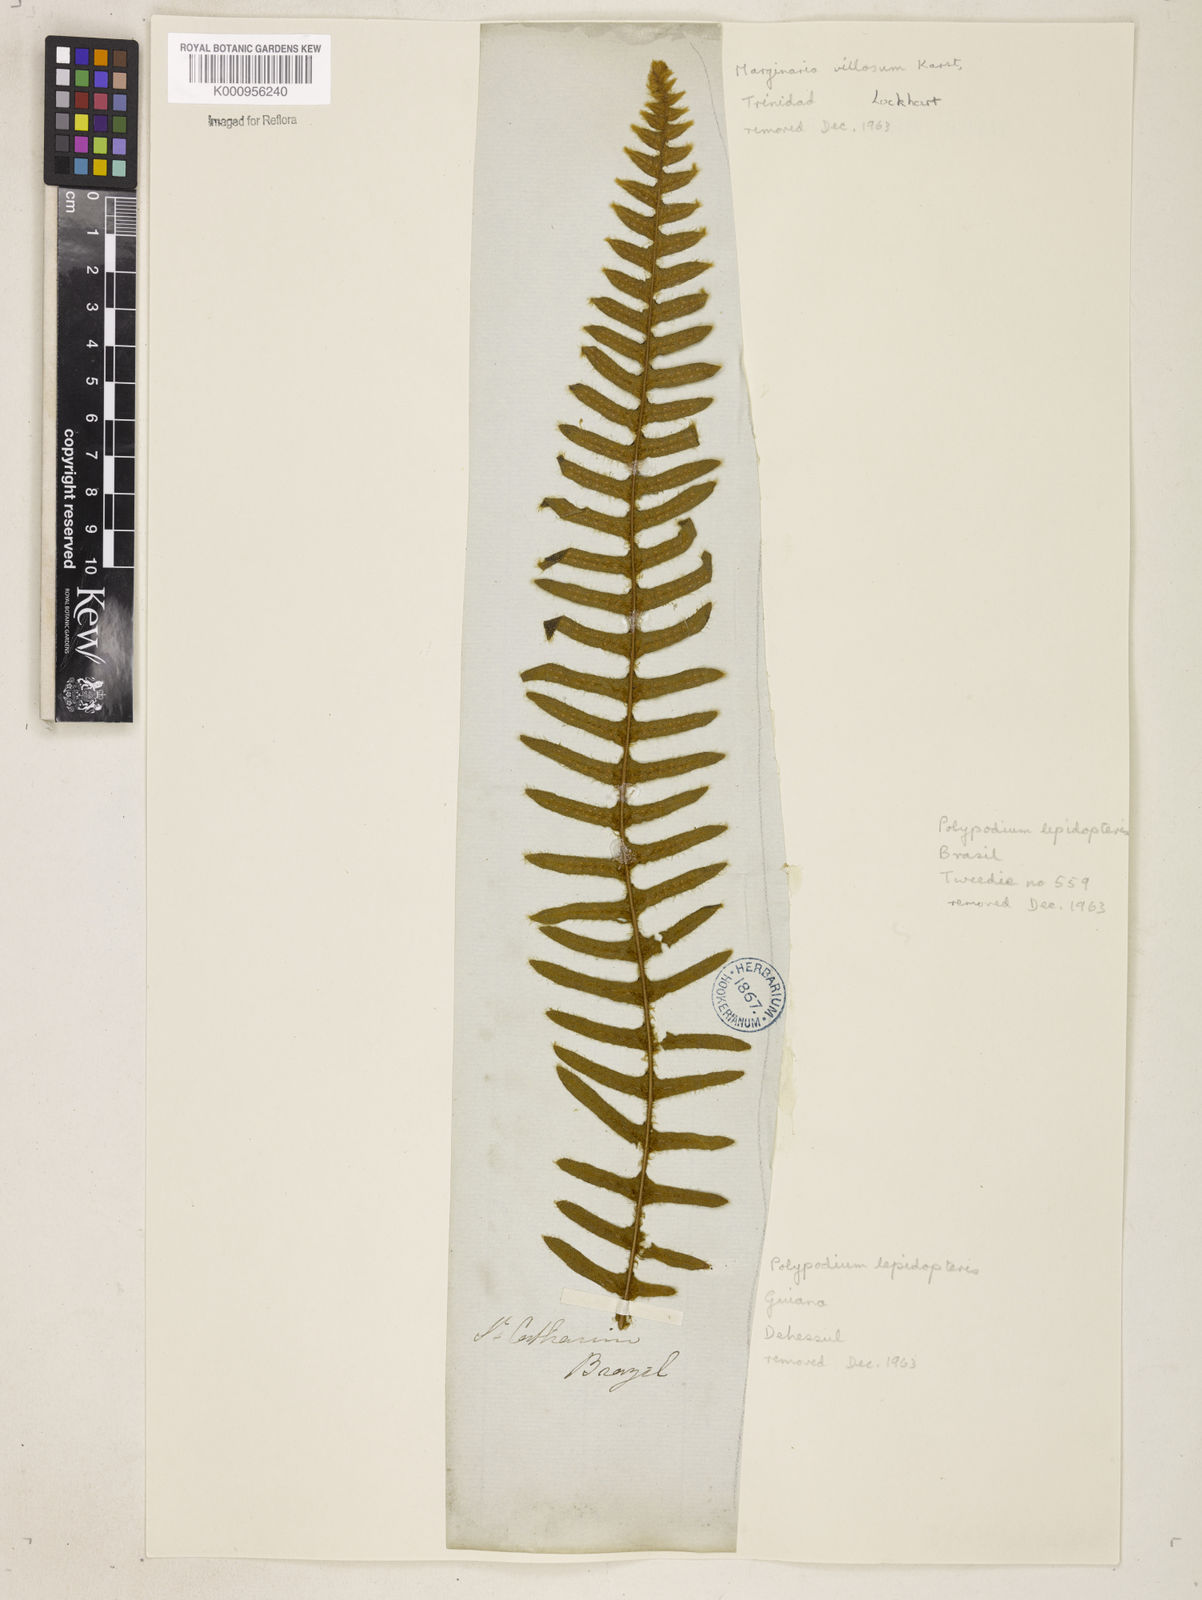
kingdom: Plantae
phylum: Tracheophyta
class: Polypodiopsida
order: Polypodiales
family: Polypodiaceae
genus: Pleopeltis
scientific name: Pleopeltis hirsutissima
